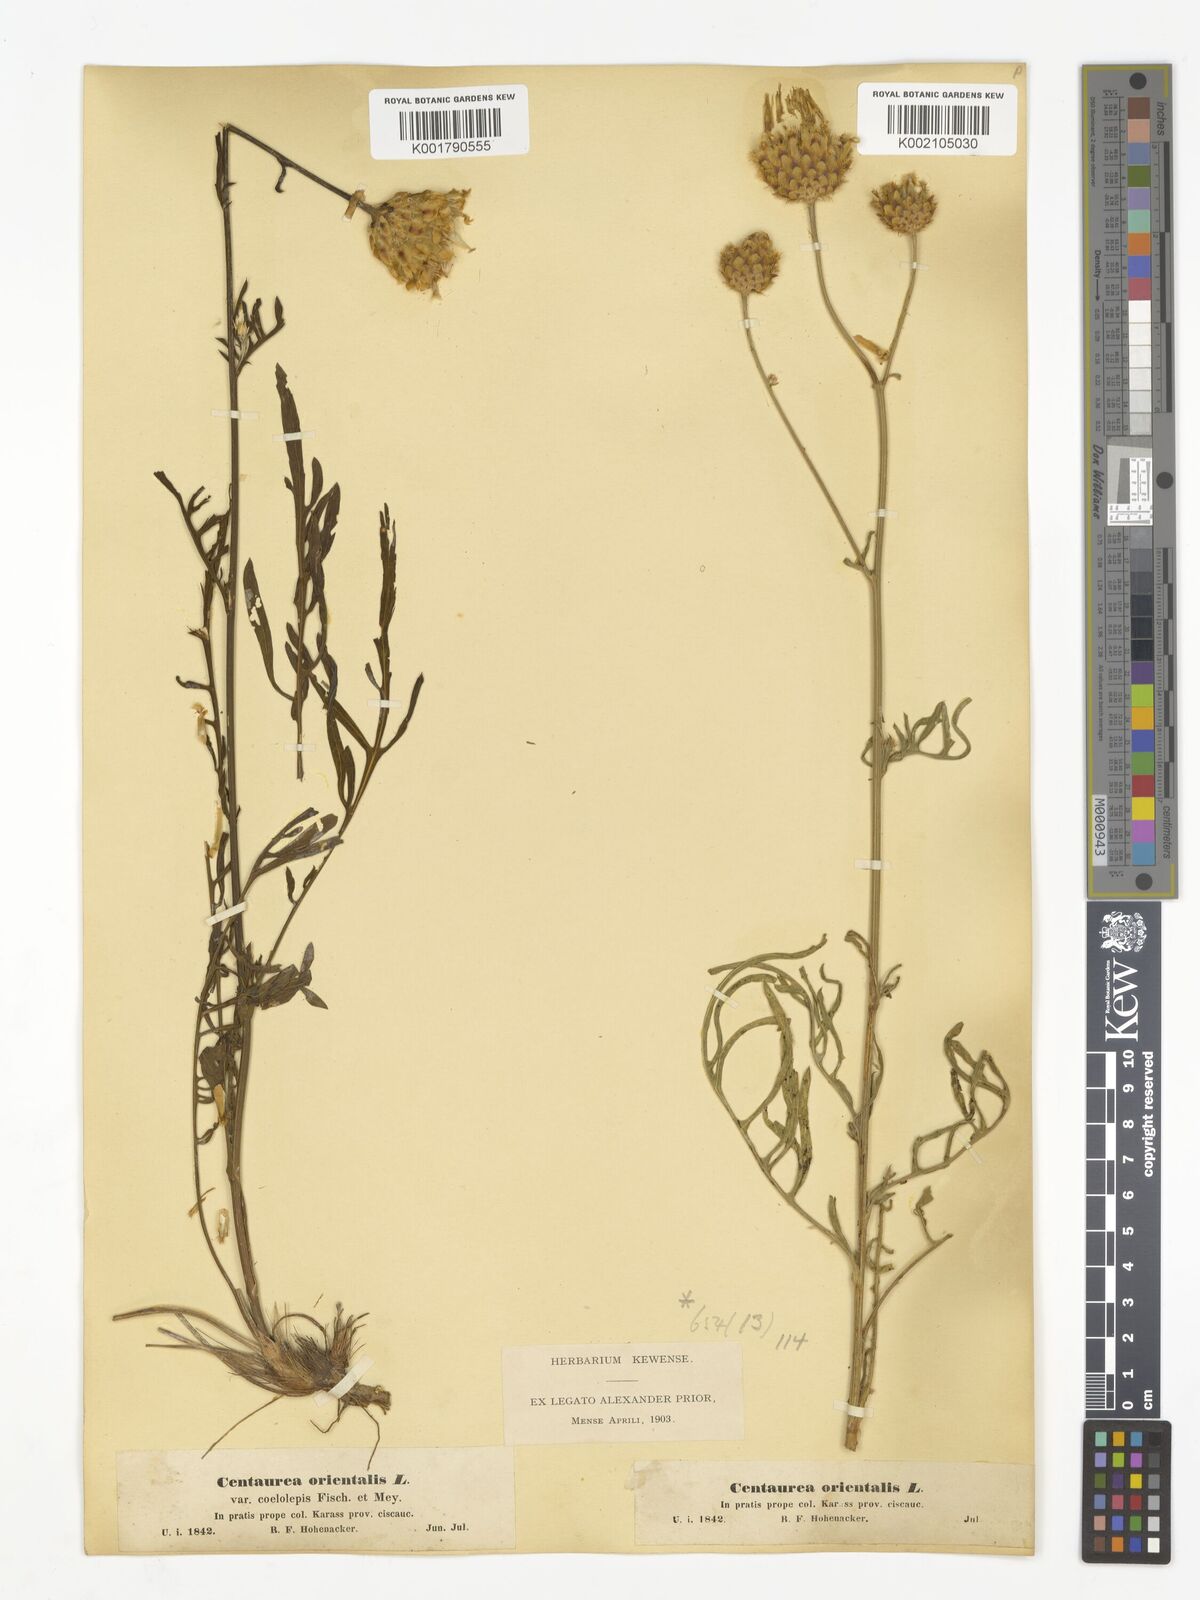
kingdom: Plantae
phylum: Tracheophyta
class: Magnoliopsida
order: Asterales
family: Asteraceae
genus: Centaurea
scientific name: Centaurea orientalis
